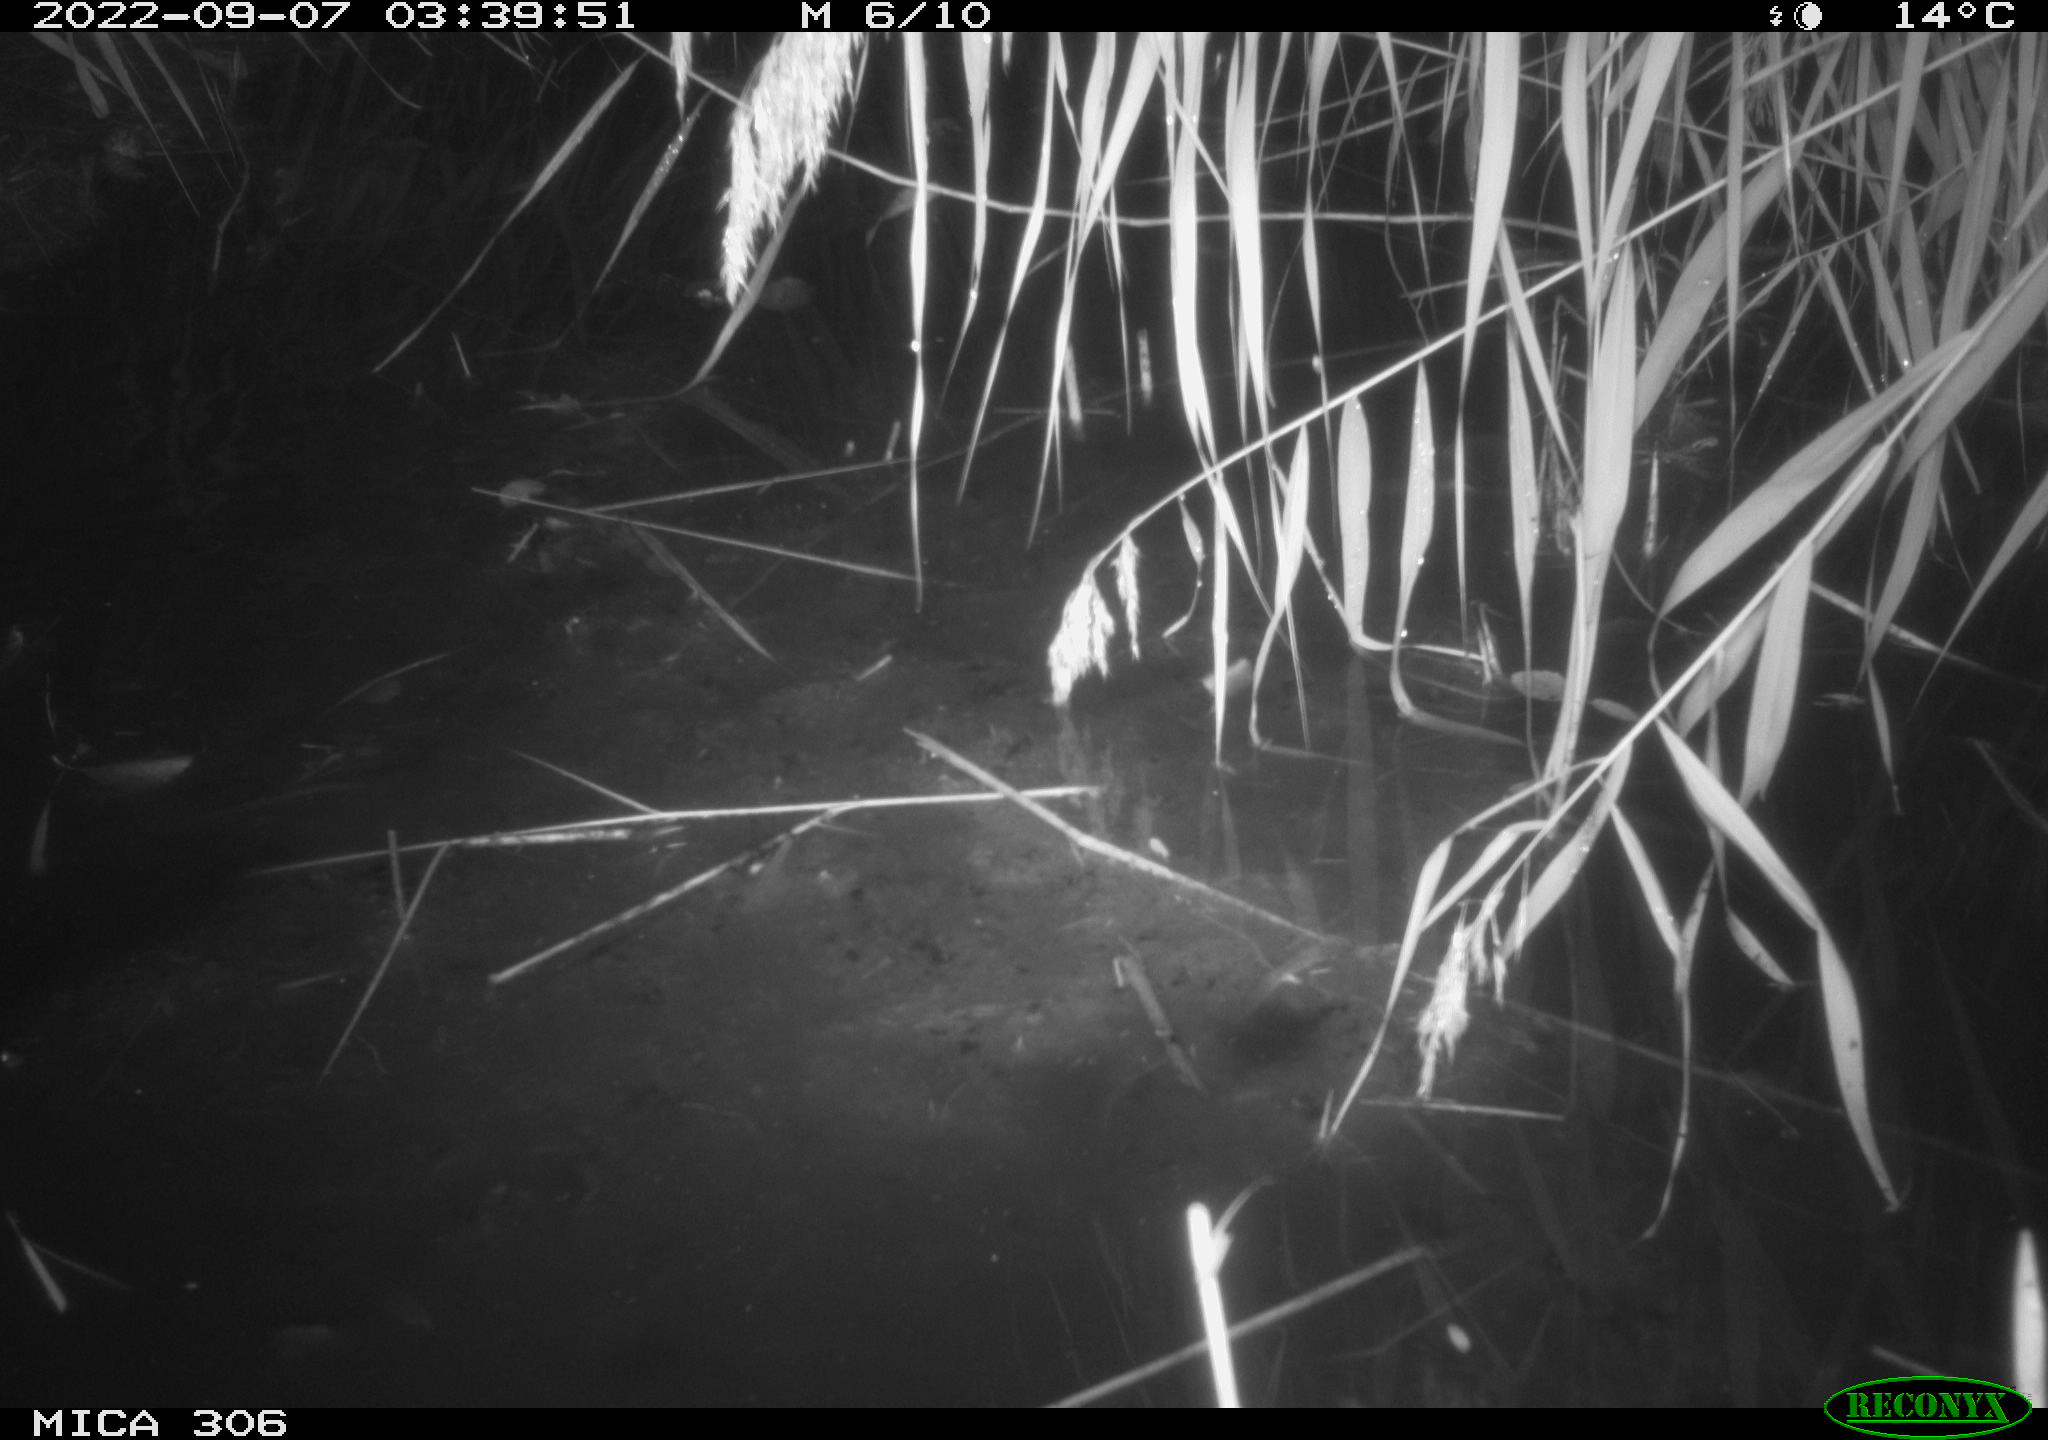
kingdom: Animalia
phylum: Chordata
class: Mammalia
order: Rodentia
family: Muridae
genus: Rattus
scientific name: Rattus norvegicus
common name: Brown rat
